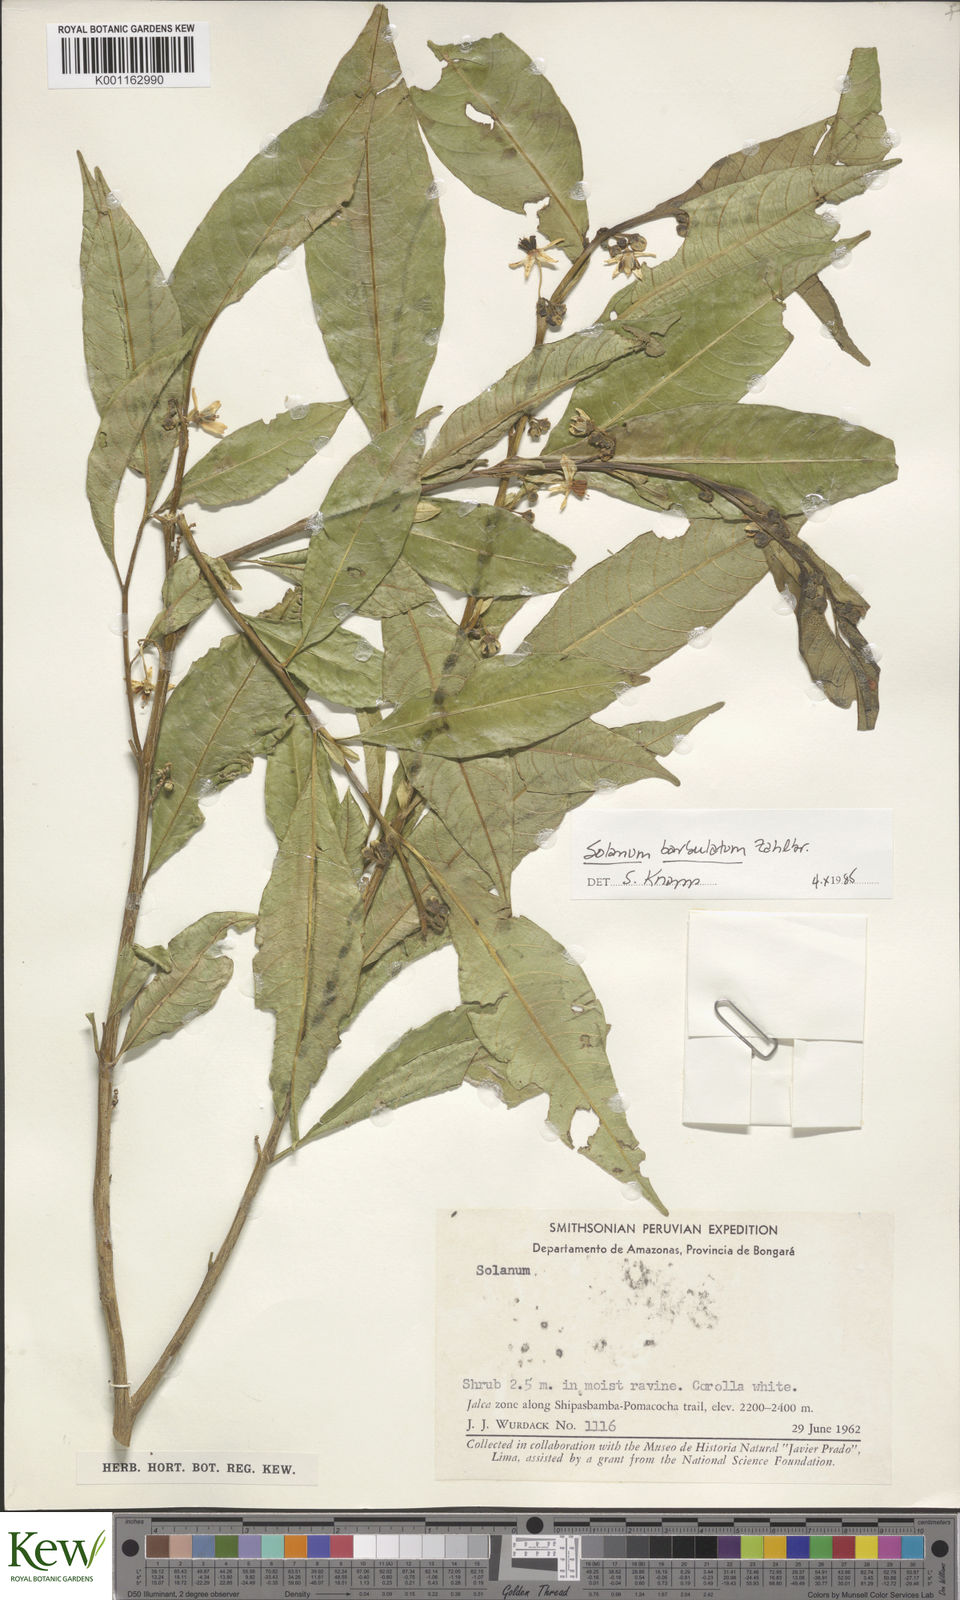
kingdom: Plantae
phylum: Tracheophyta
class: Magnoliopsida
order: Solanales
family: Solanaceae
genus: Solanum
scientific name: Solanum barbulatum
